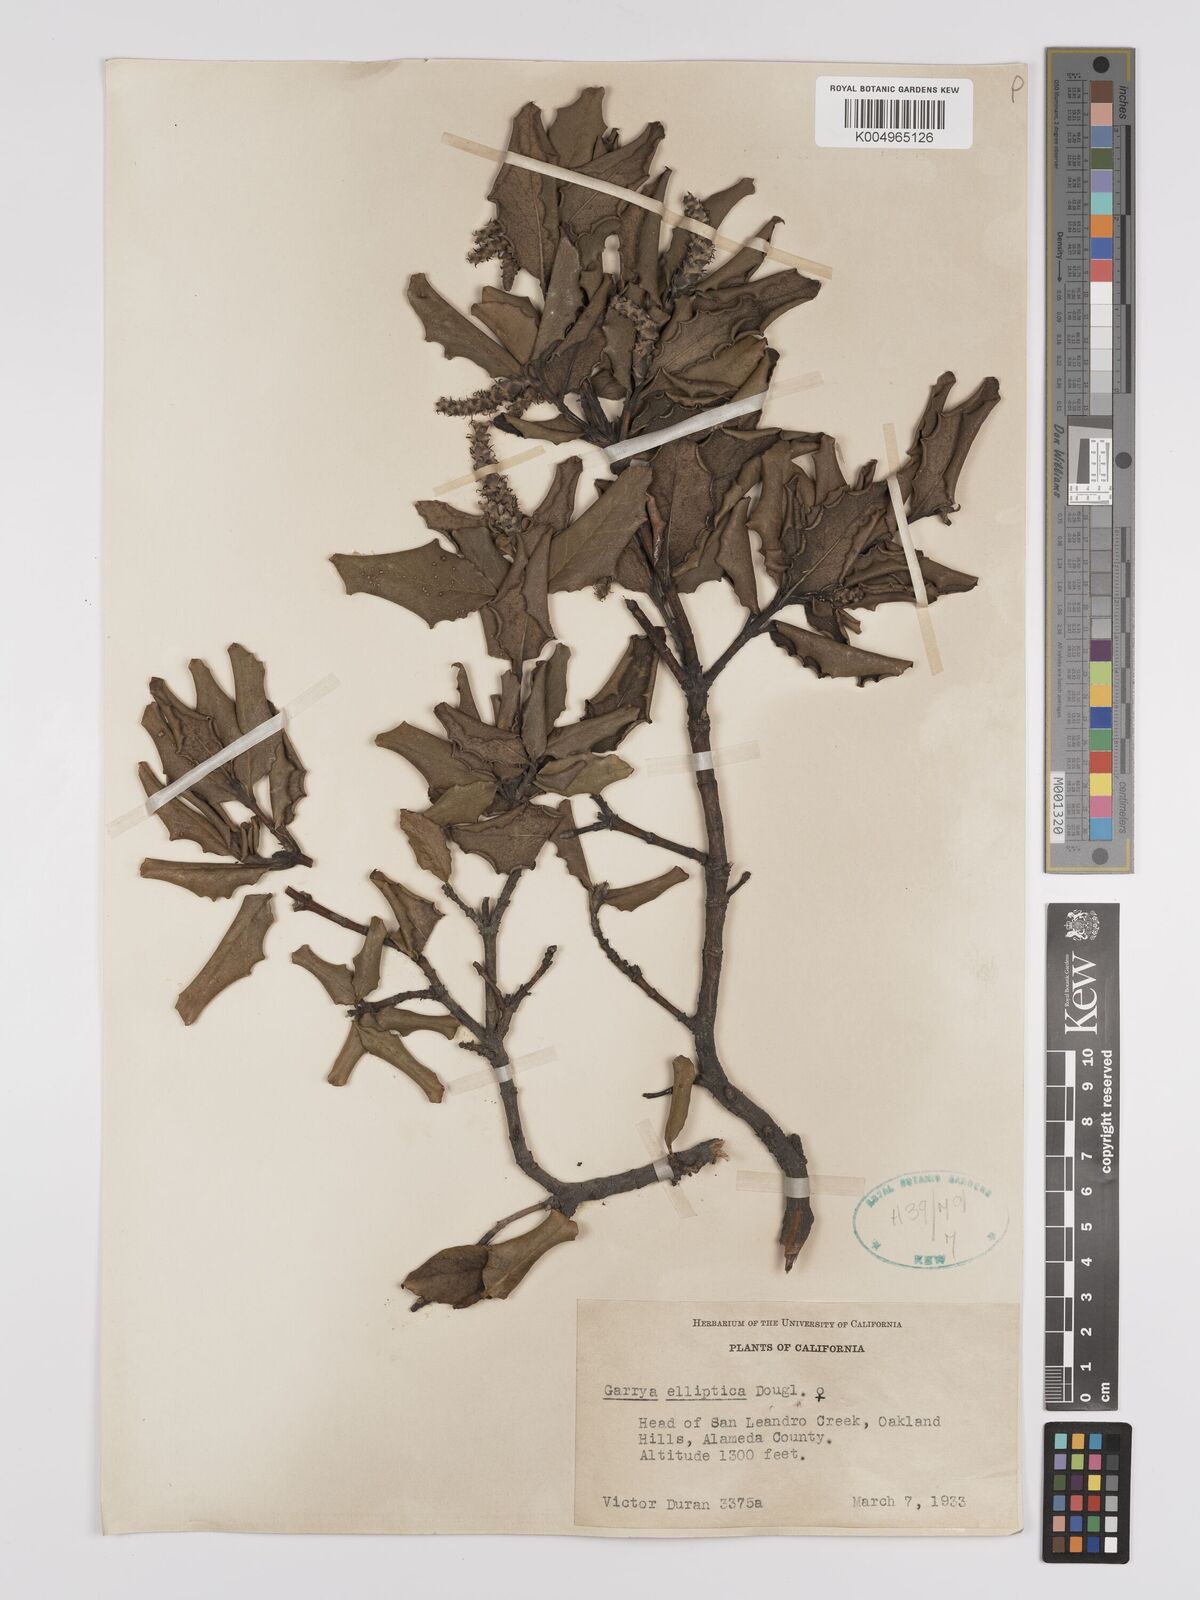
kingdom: Plantae
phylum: Tracheophyta
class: Magnoliopsida
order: Garryales
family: Garryaceae
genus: Garrya
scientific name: Garrya elliptica
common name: Silk-tassel
